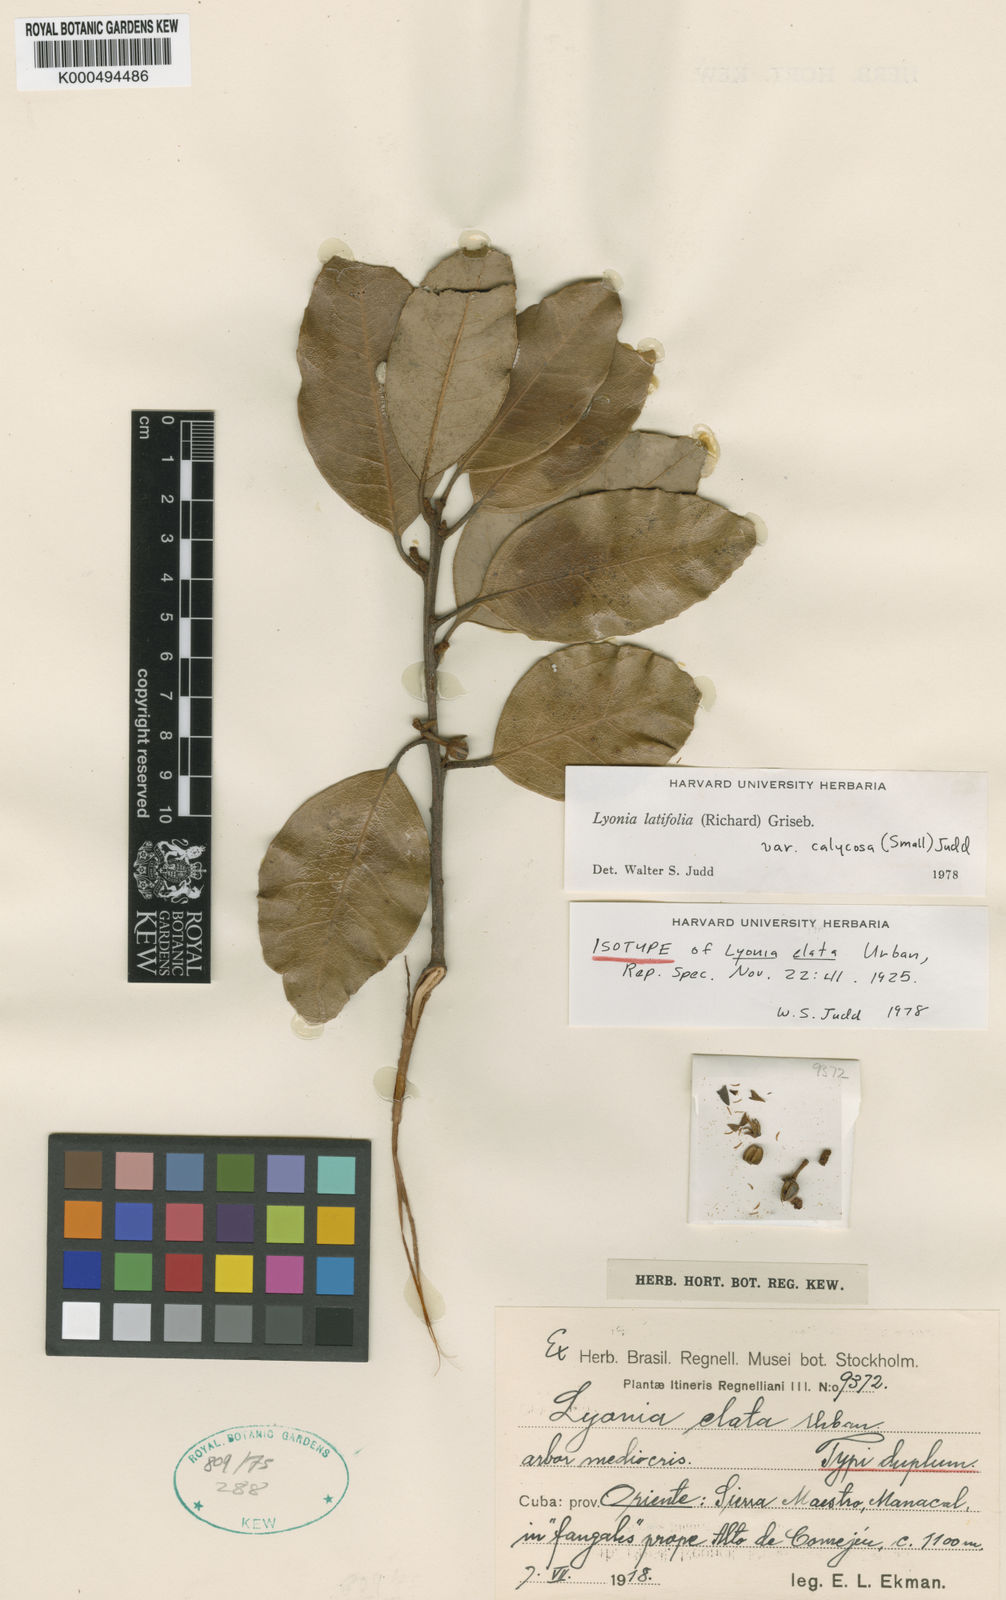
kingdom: Plantae
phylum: Tracheophyta
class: Magnoliopsida
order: Ericales
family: Ericaceae
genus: Lyonia
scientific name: Lyonia latifolia
